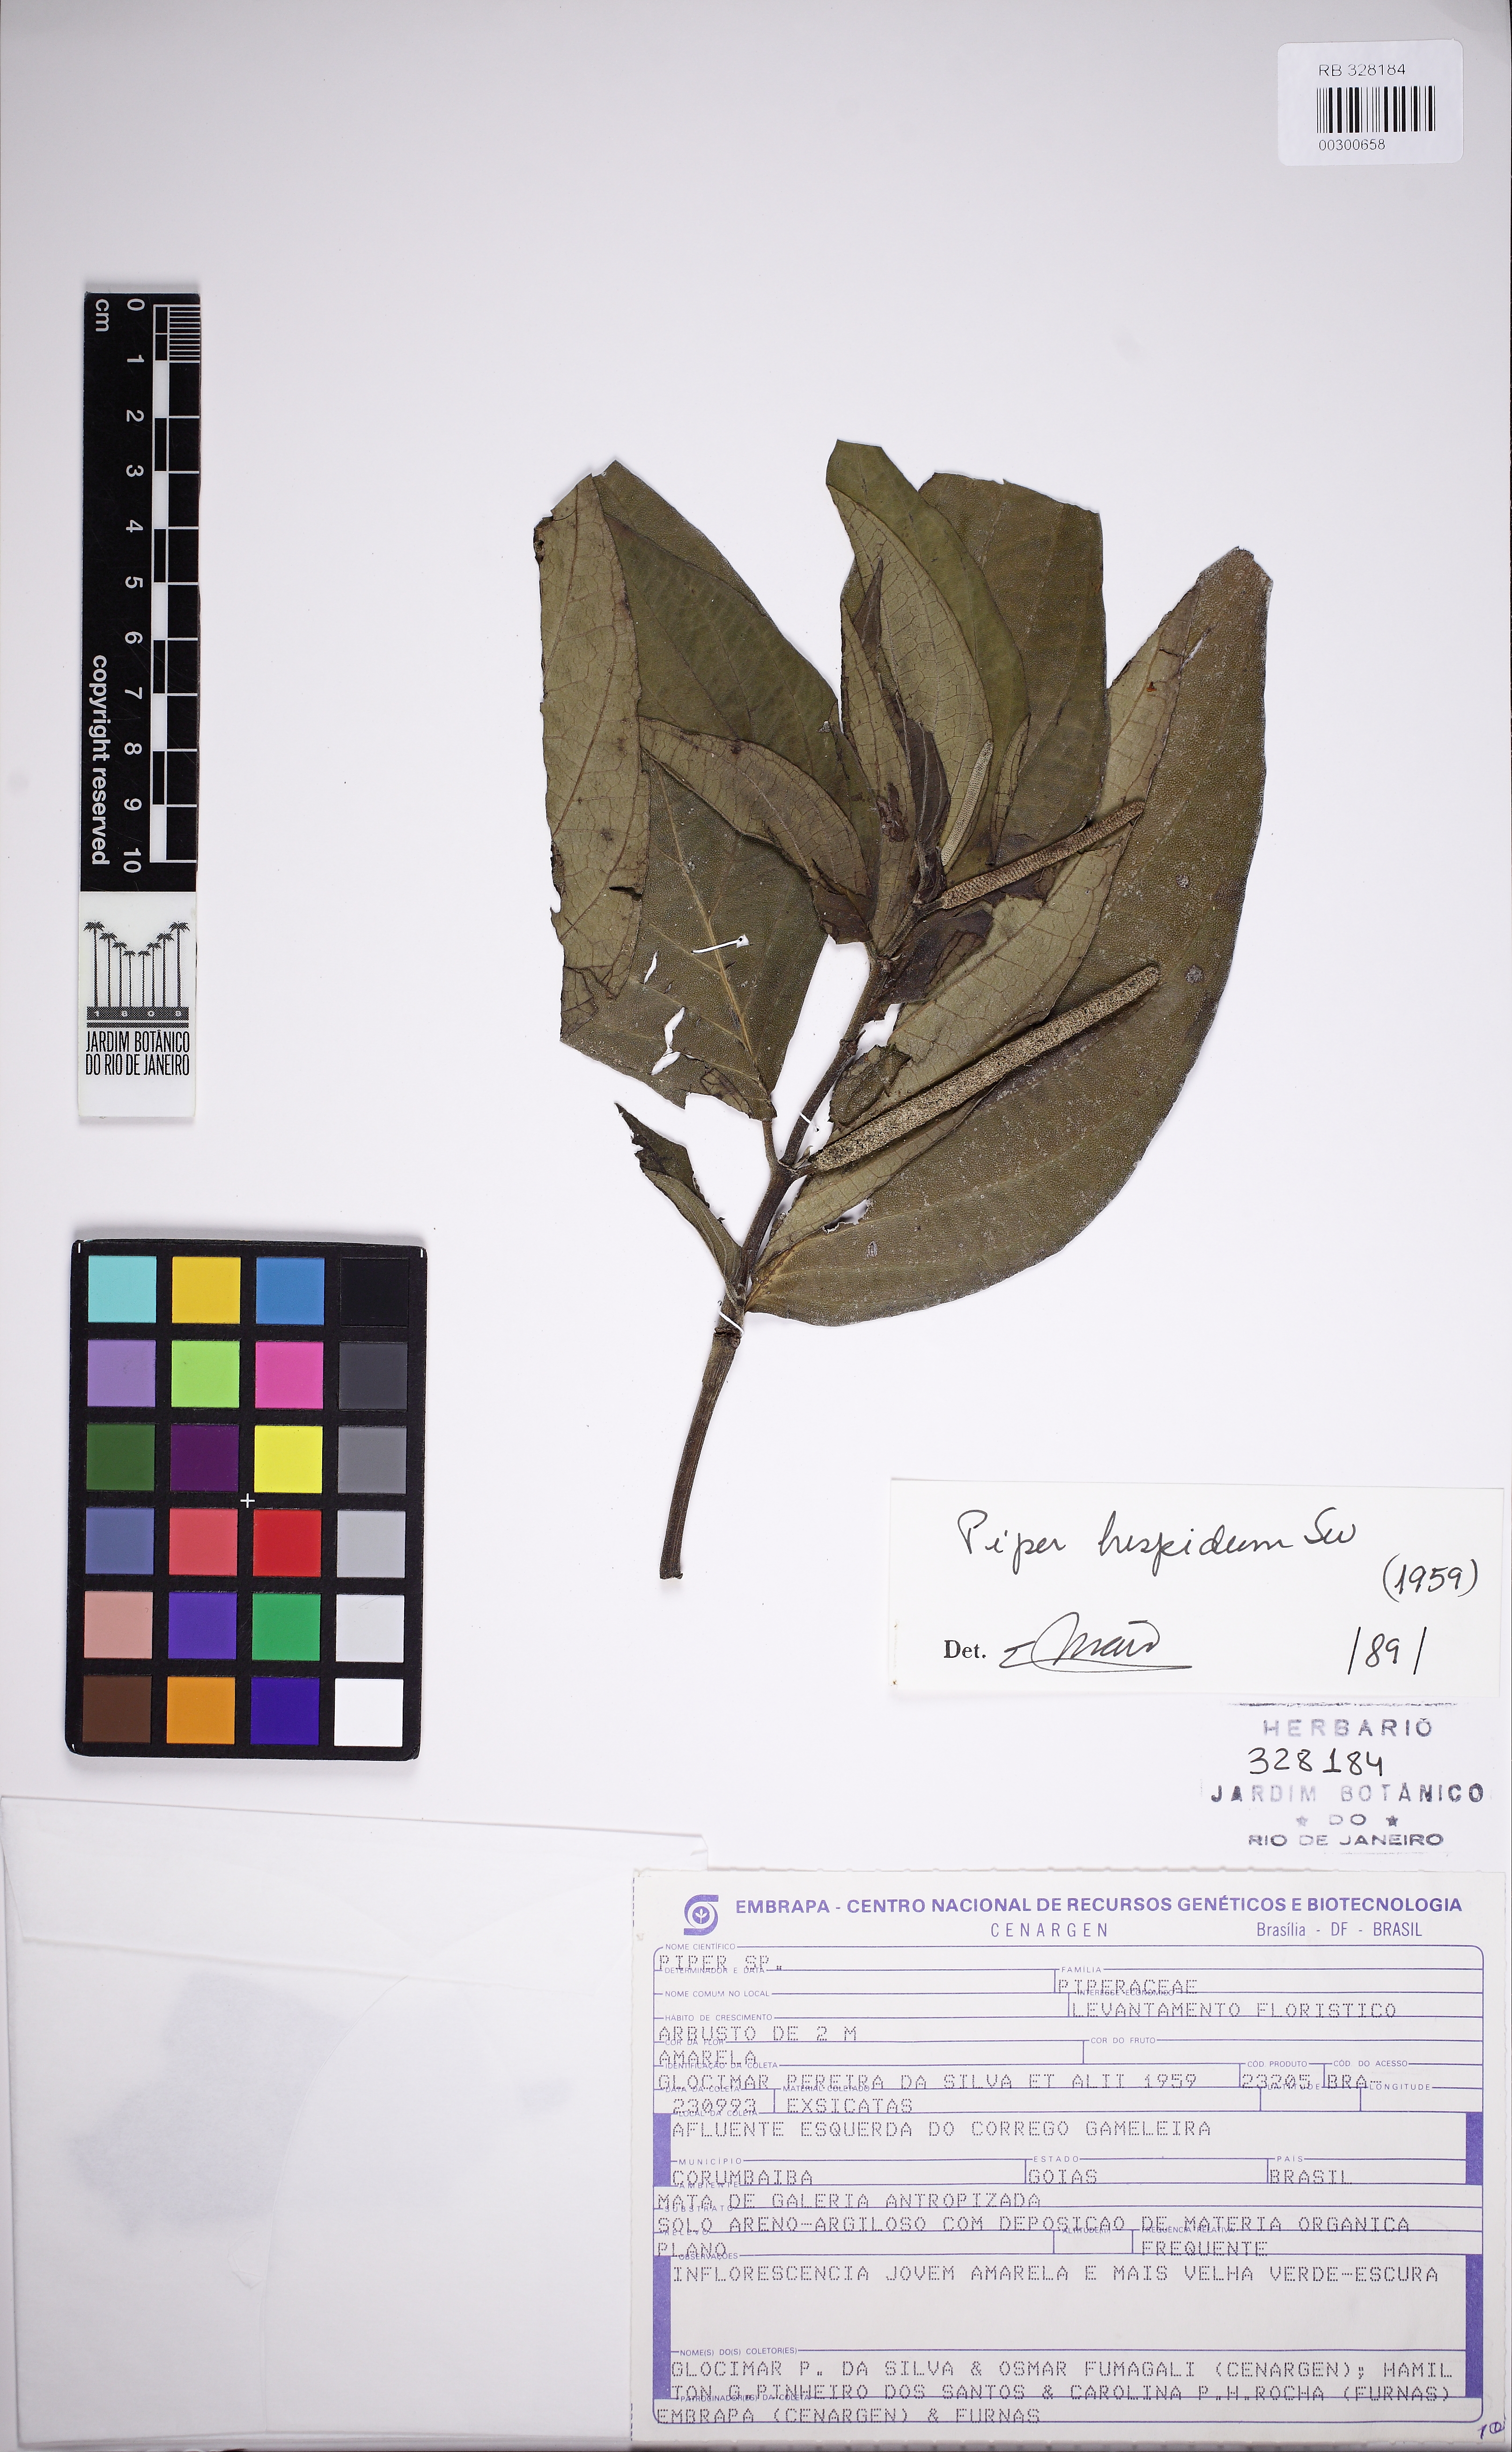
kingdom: Plantae
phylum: Tracheophyta
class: Magnoliopsida
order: Piperales
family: Piperaceae
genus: Piper
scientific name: Piper hispidum
